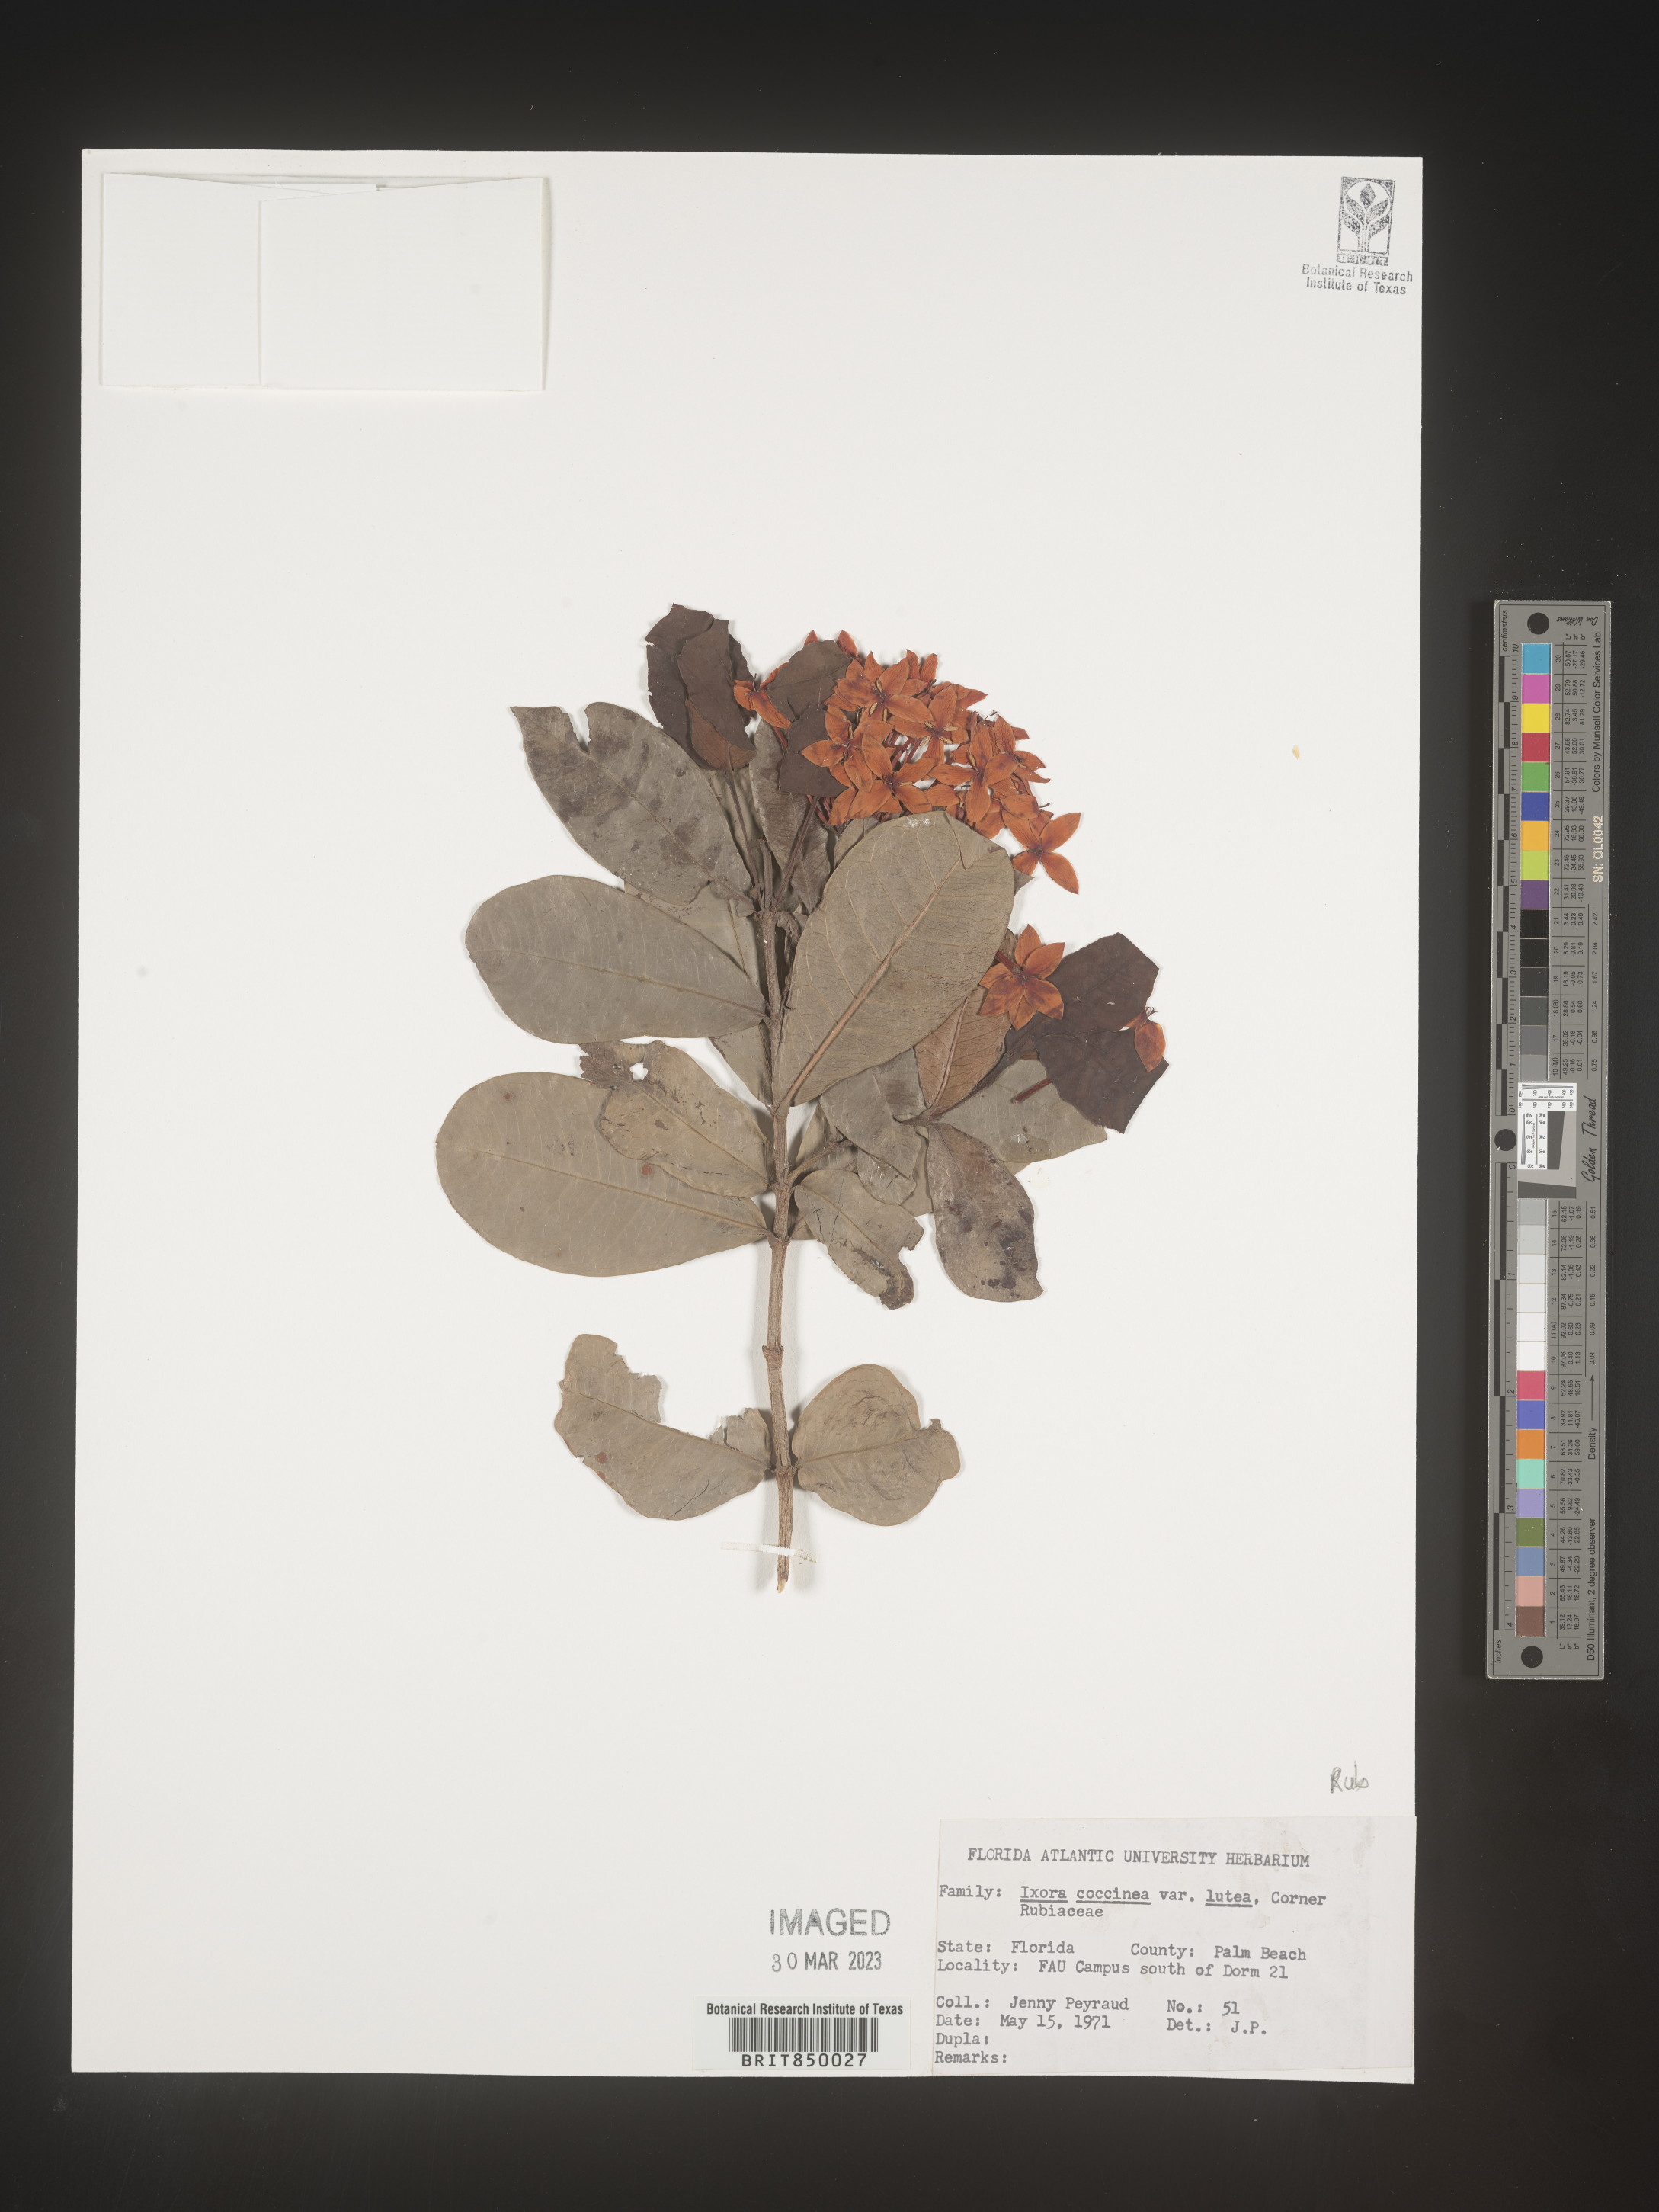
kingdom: Plantae
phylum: Tracheophyta
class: Magnoliopsida
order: Gentianales
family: Rubiaceae
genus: Ixora
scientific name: Ixora
